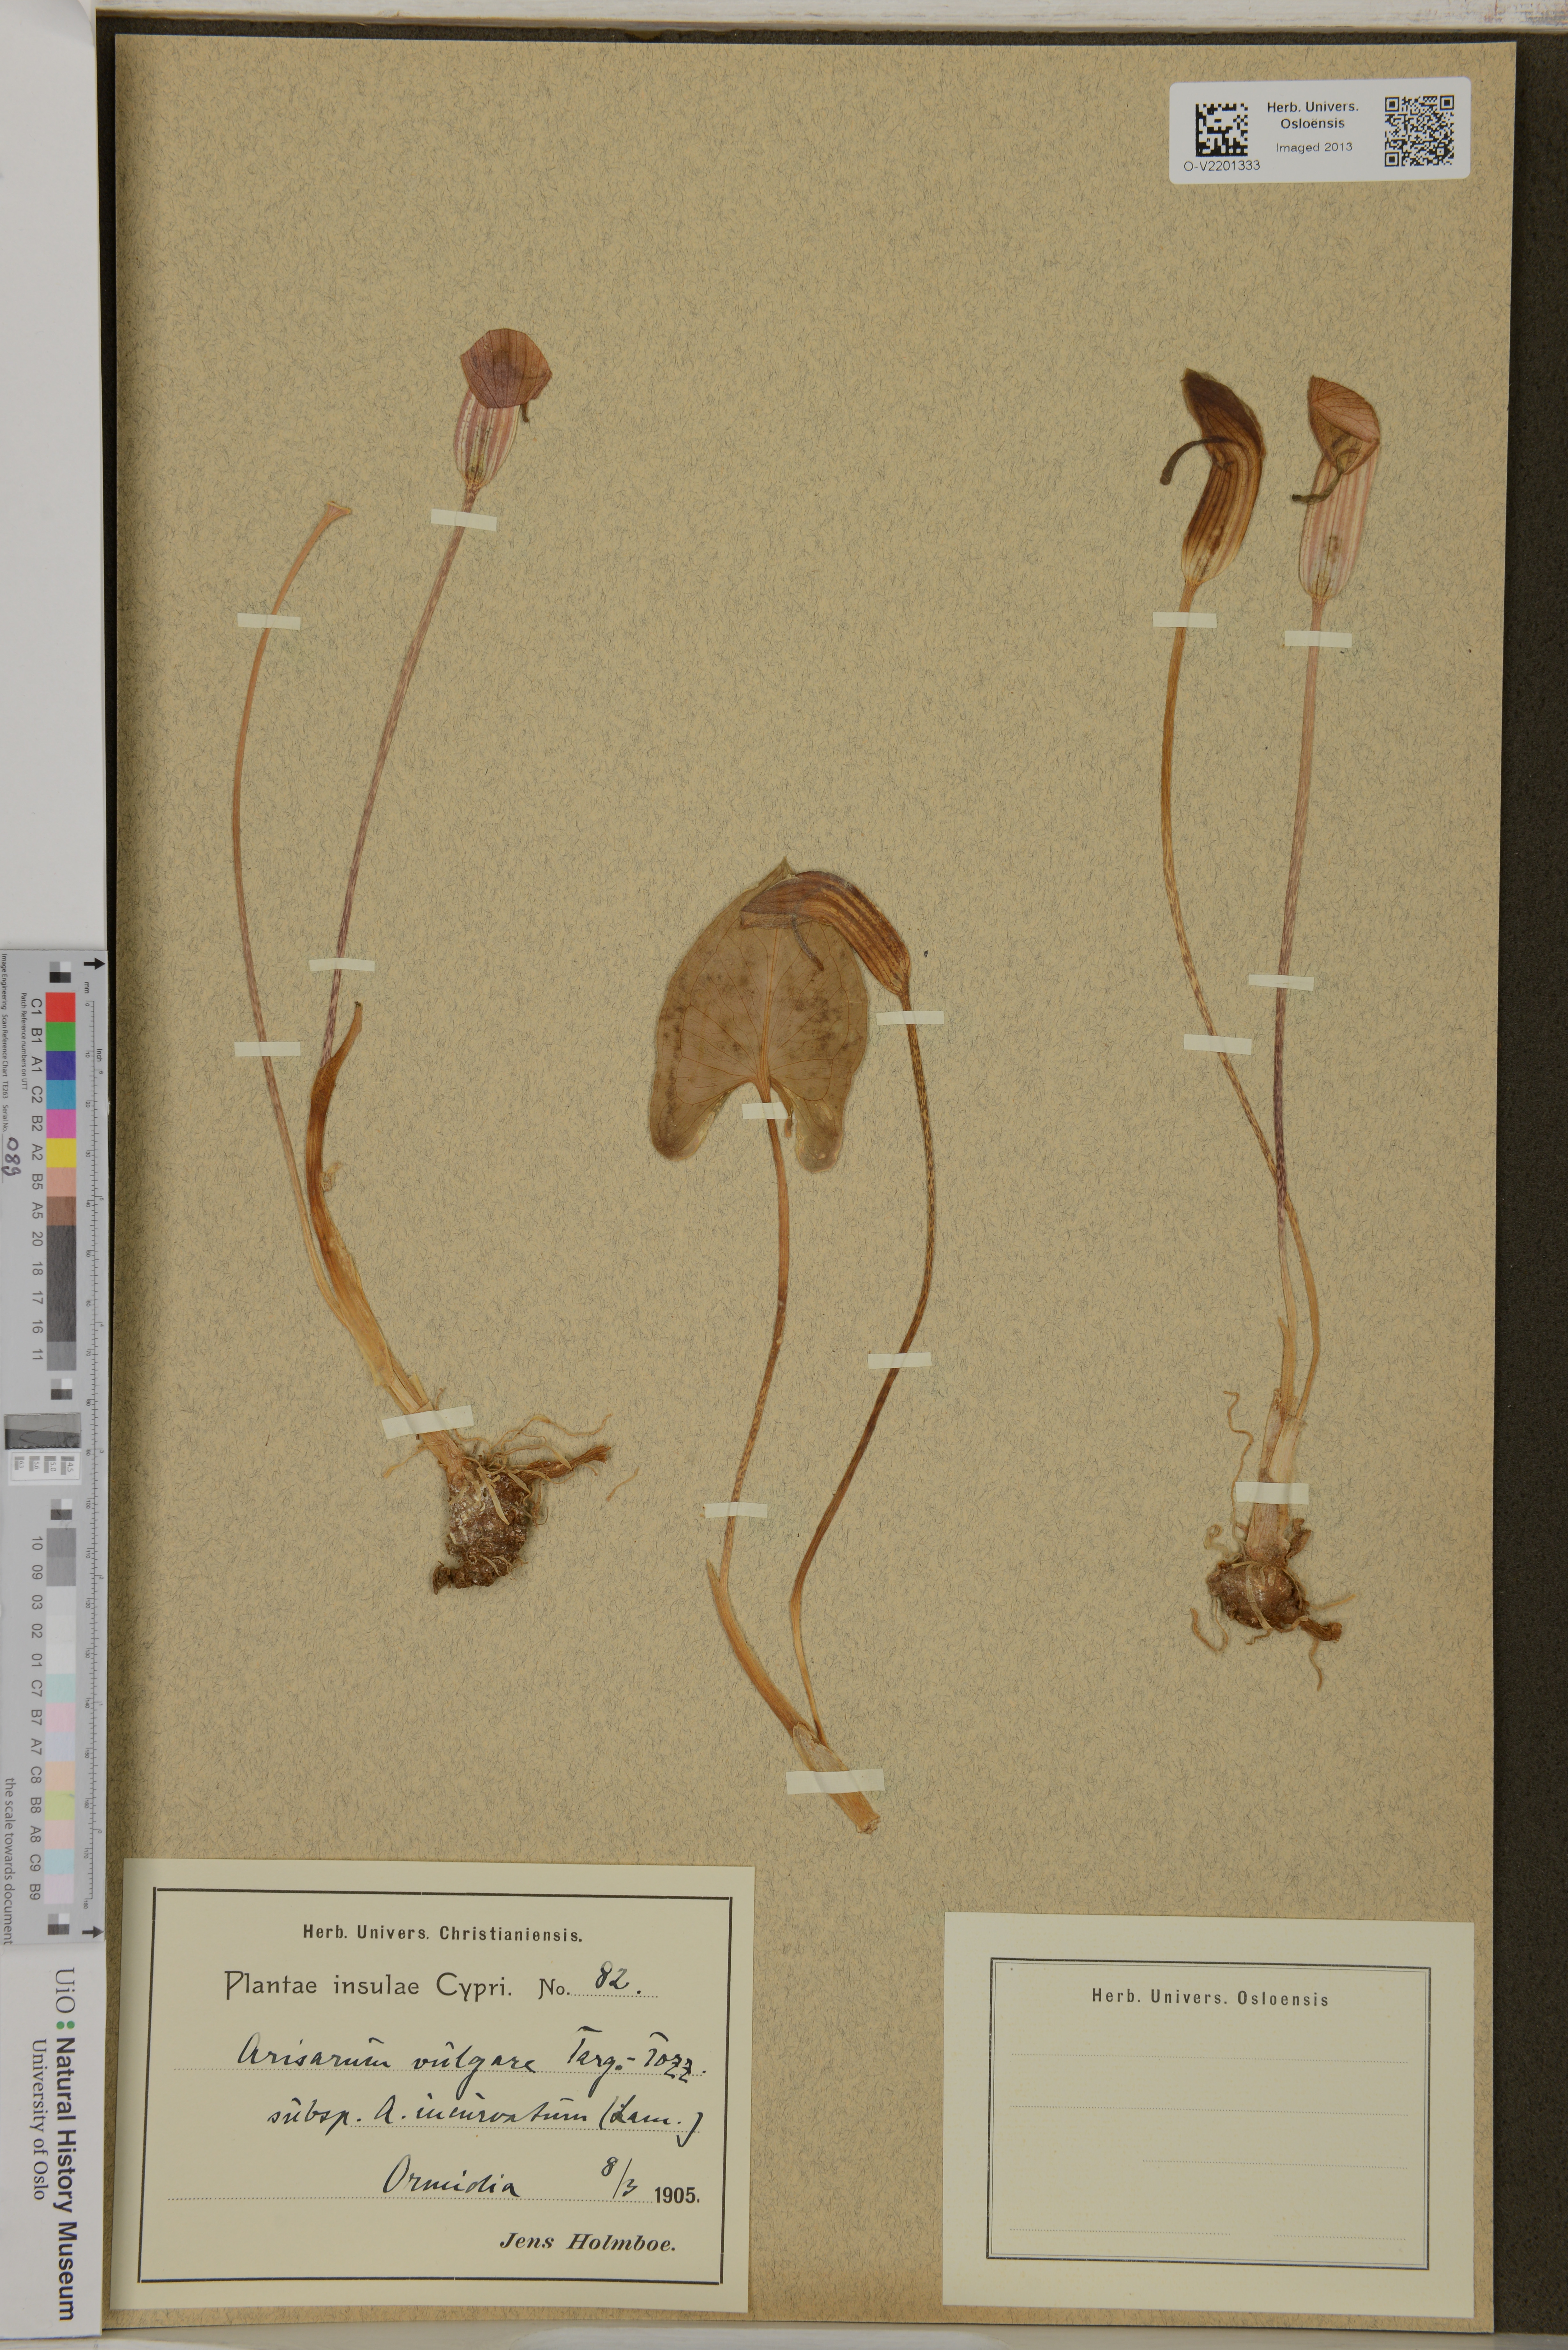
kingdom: Plantae
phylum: Tracheophyta
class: Liliopsida
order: Alismatales
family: Araceae
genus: Arisarum
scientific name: Arisarum vulgare
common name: Common arisarum
